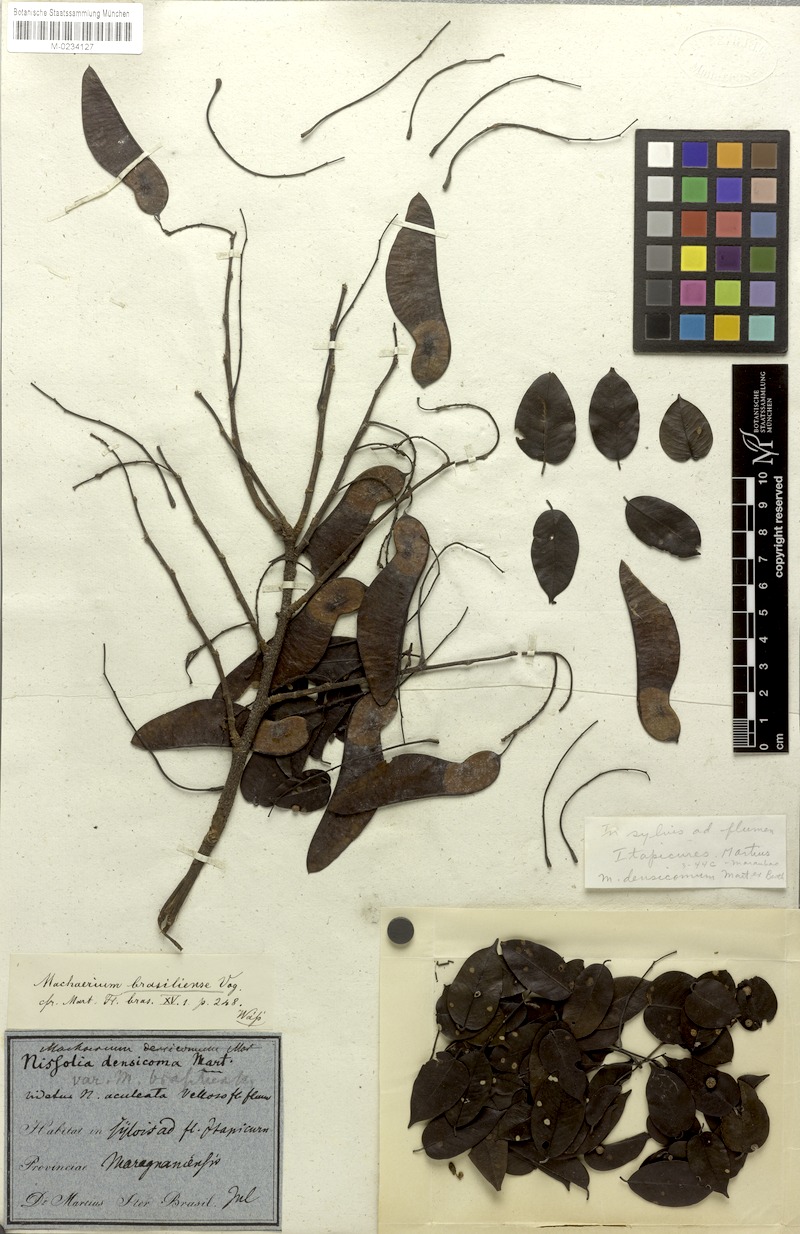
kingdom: Plantae
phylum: Tracheophyta
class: Magnoliopsida
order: Fabales
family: Fabaceae
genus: Machaerium
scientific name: Machaerium brasiliense
